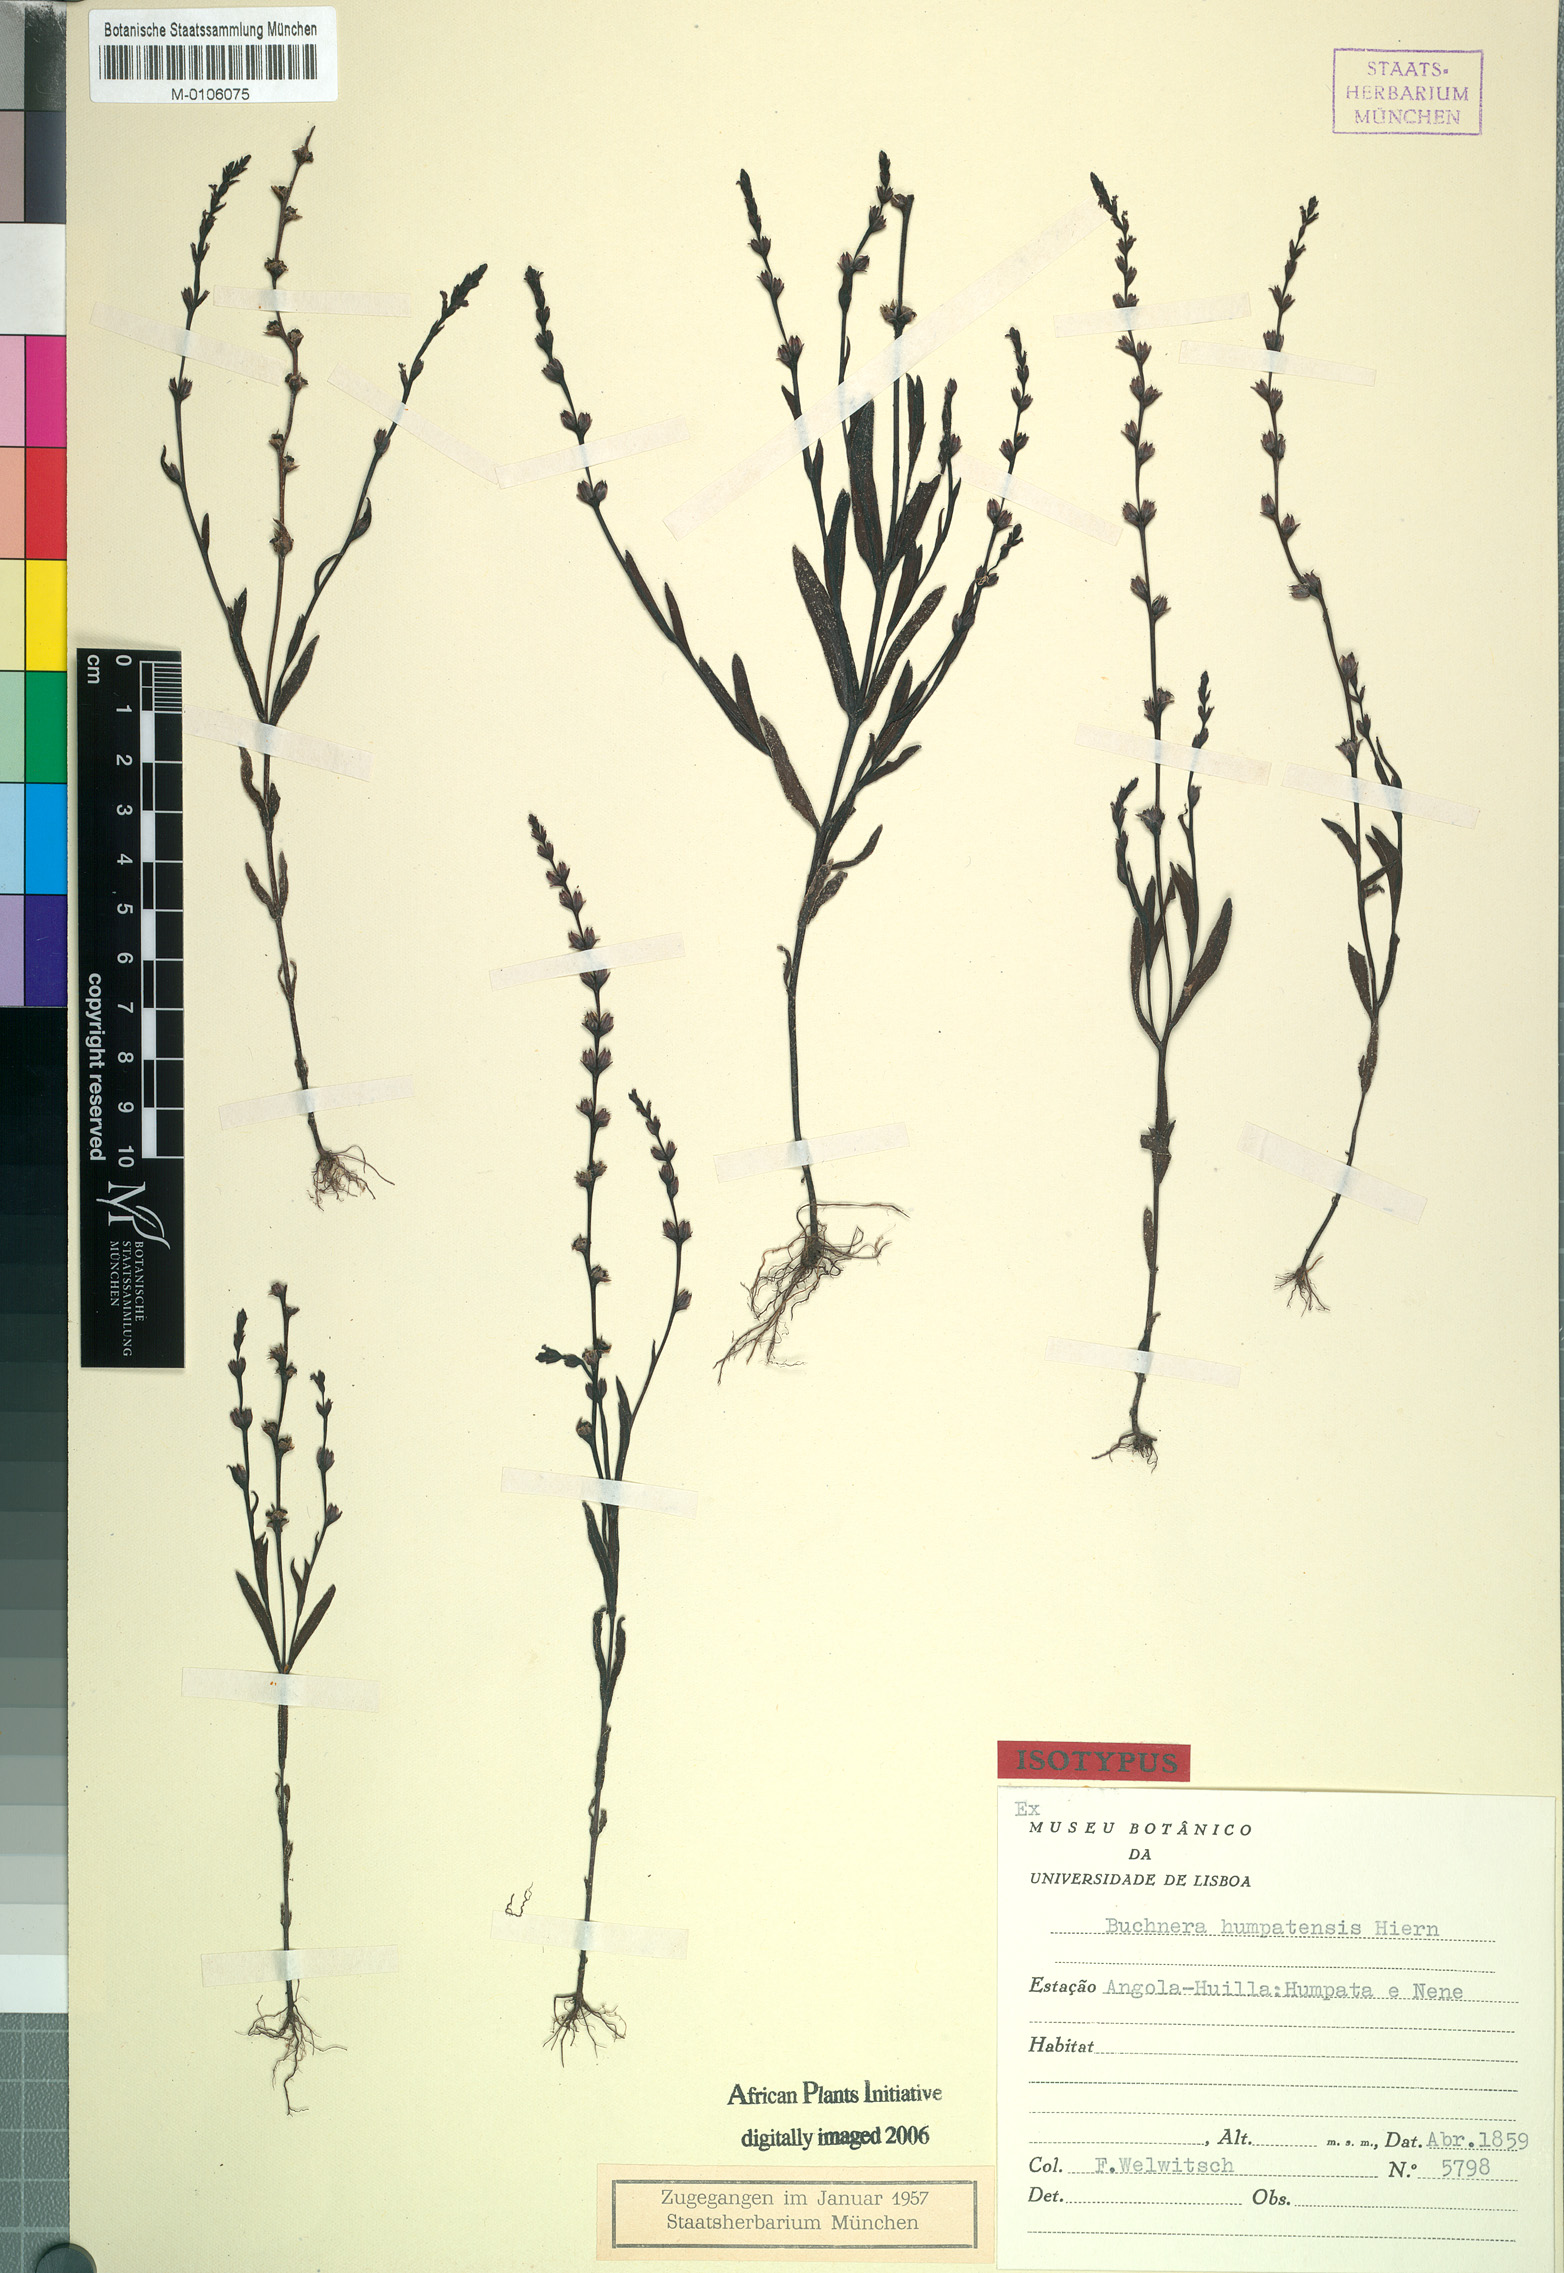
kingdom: Plantae
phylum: Tracheophyta
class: Magnoliopsida
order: Lamiales
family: Orobanchaceae
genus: Buchnera
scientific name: Buchnera humpatensis
